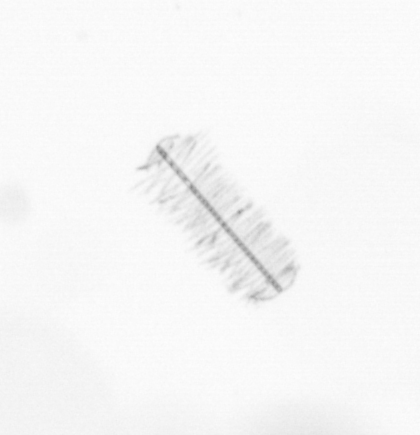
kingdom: Chromista
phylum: Ochrophyta
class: Bacillariophyceae
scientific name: Bacillariophyceae
